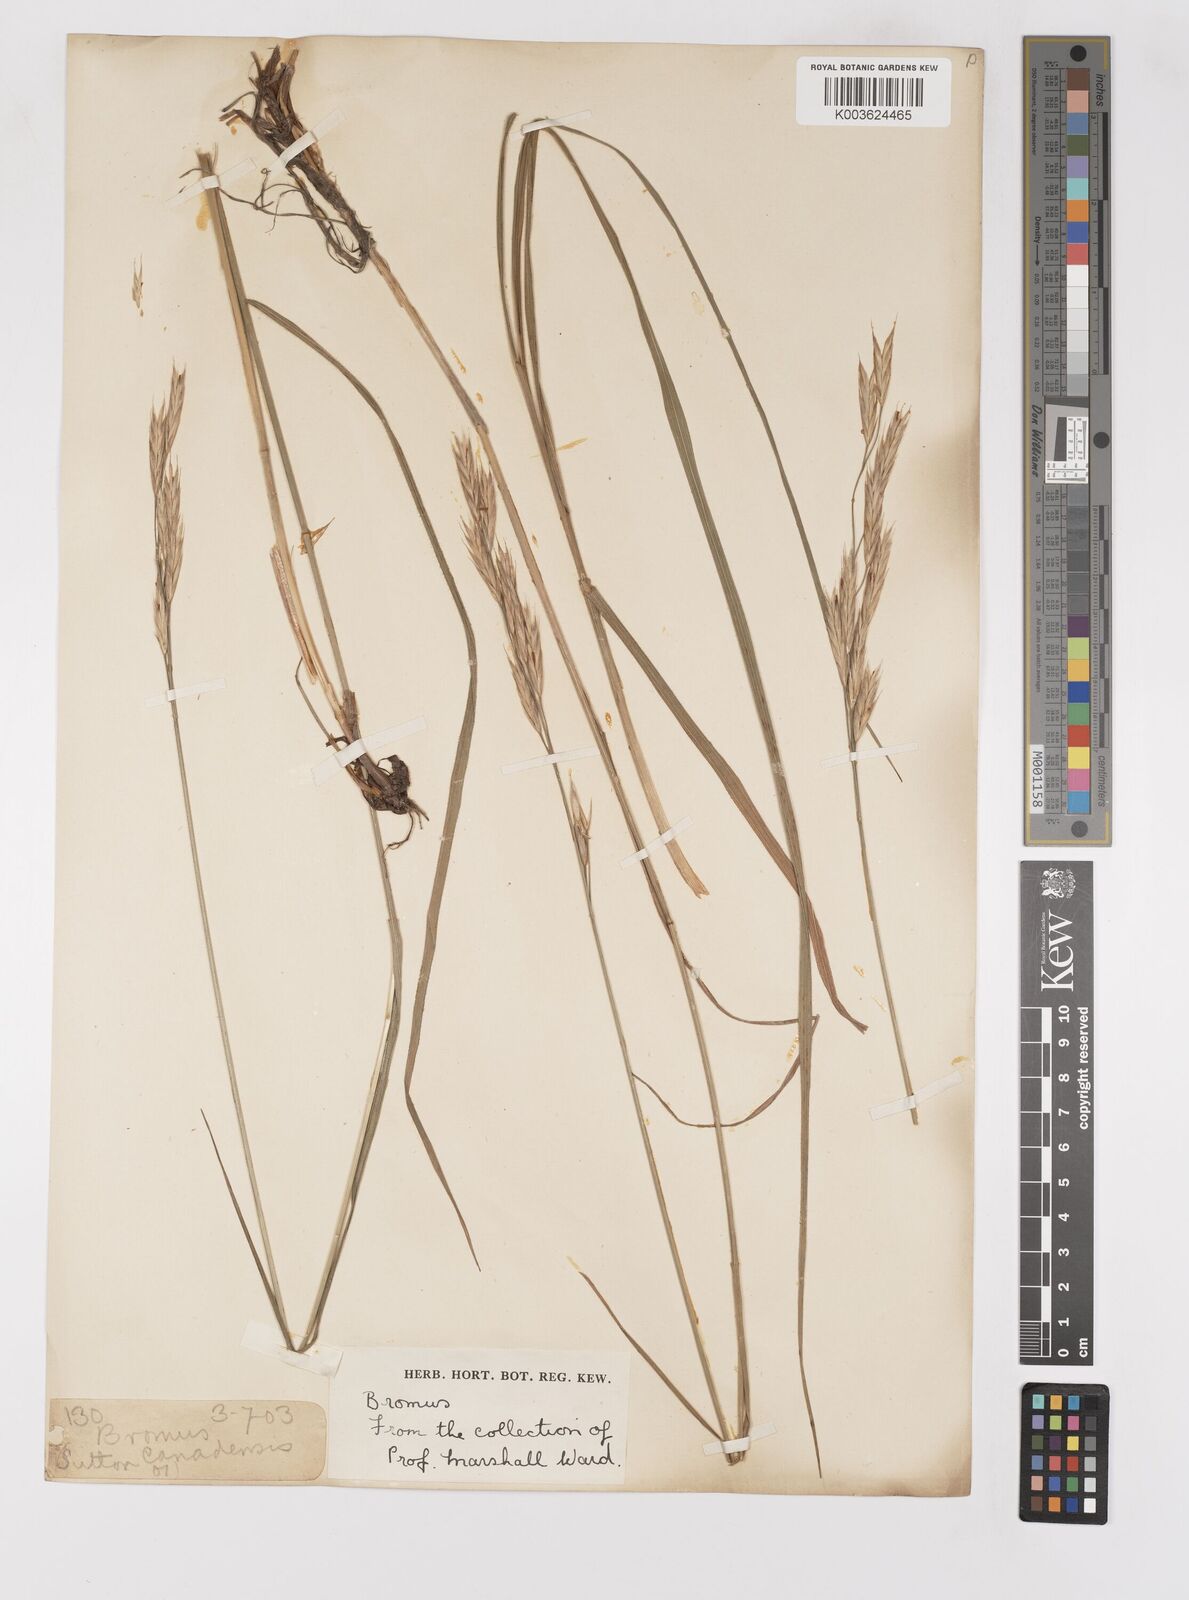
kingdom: Plantae
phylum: Tracheophyta
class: Liliopsida
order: Poales
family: Poaceae
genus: Bromus
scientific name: Bromus
